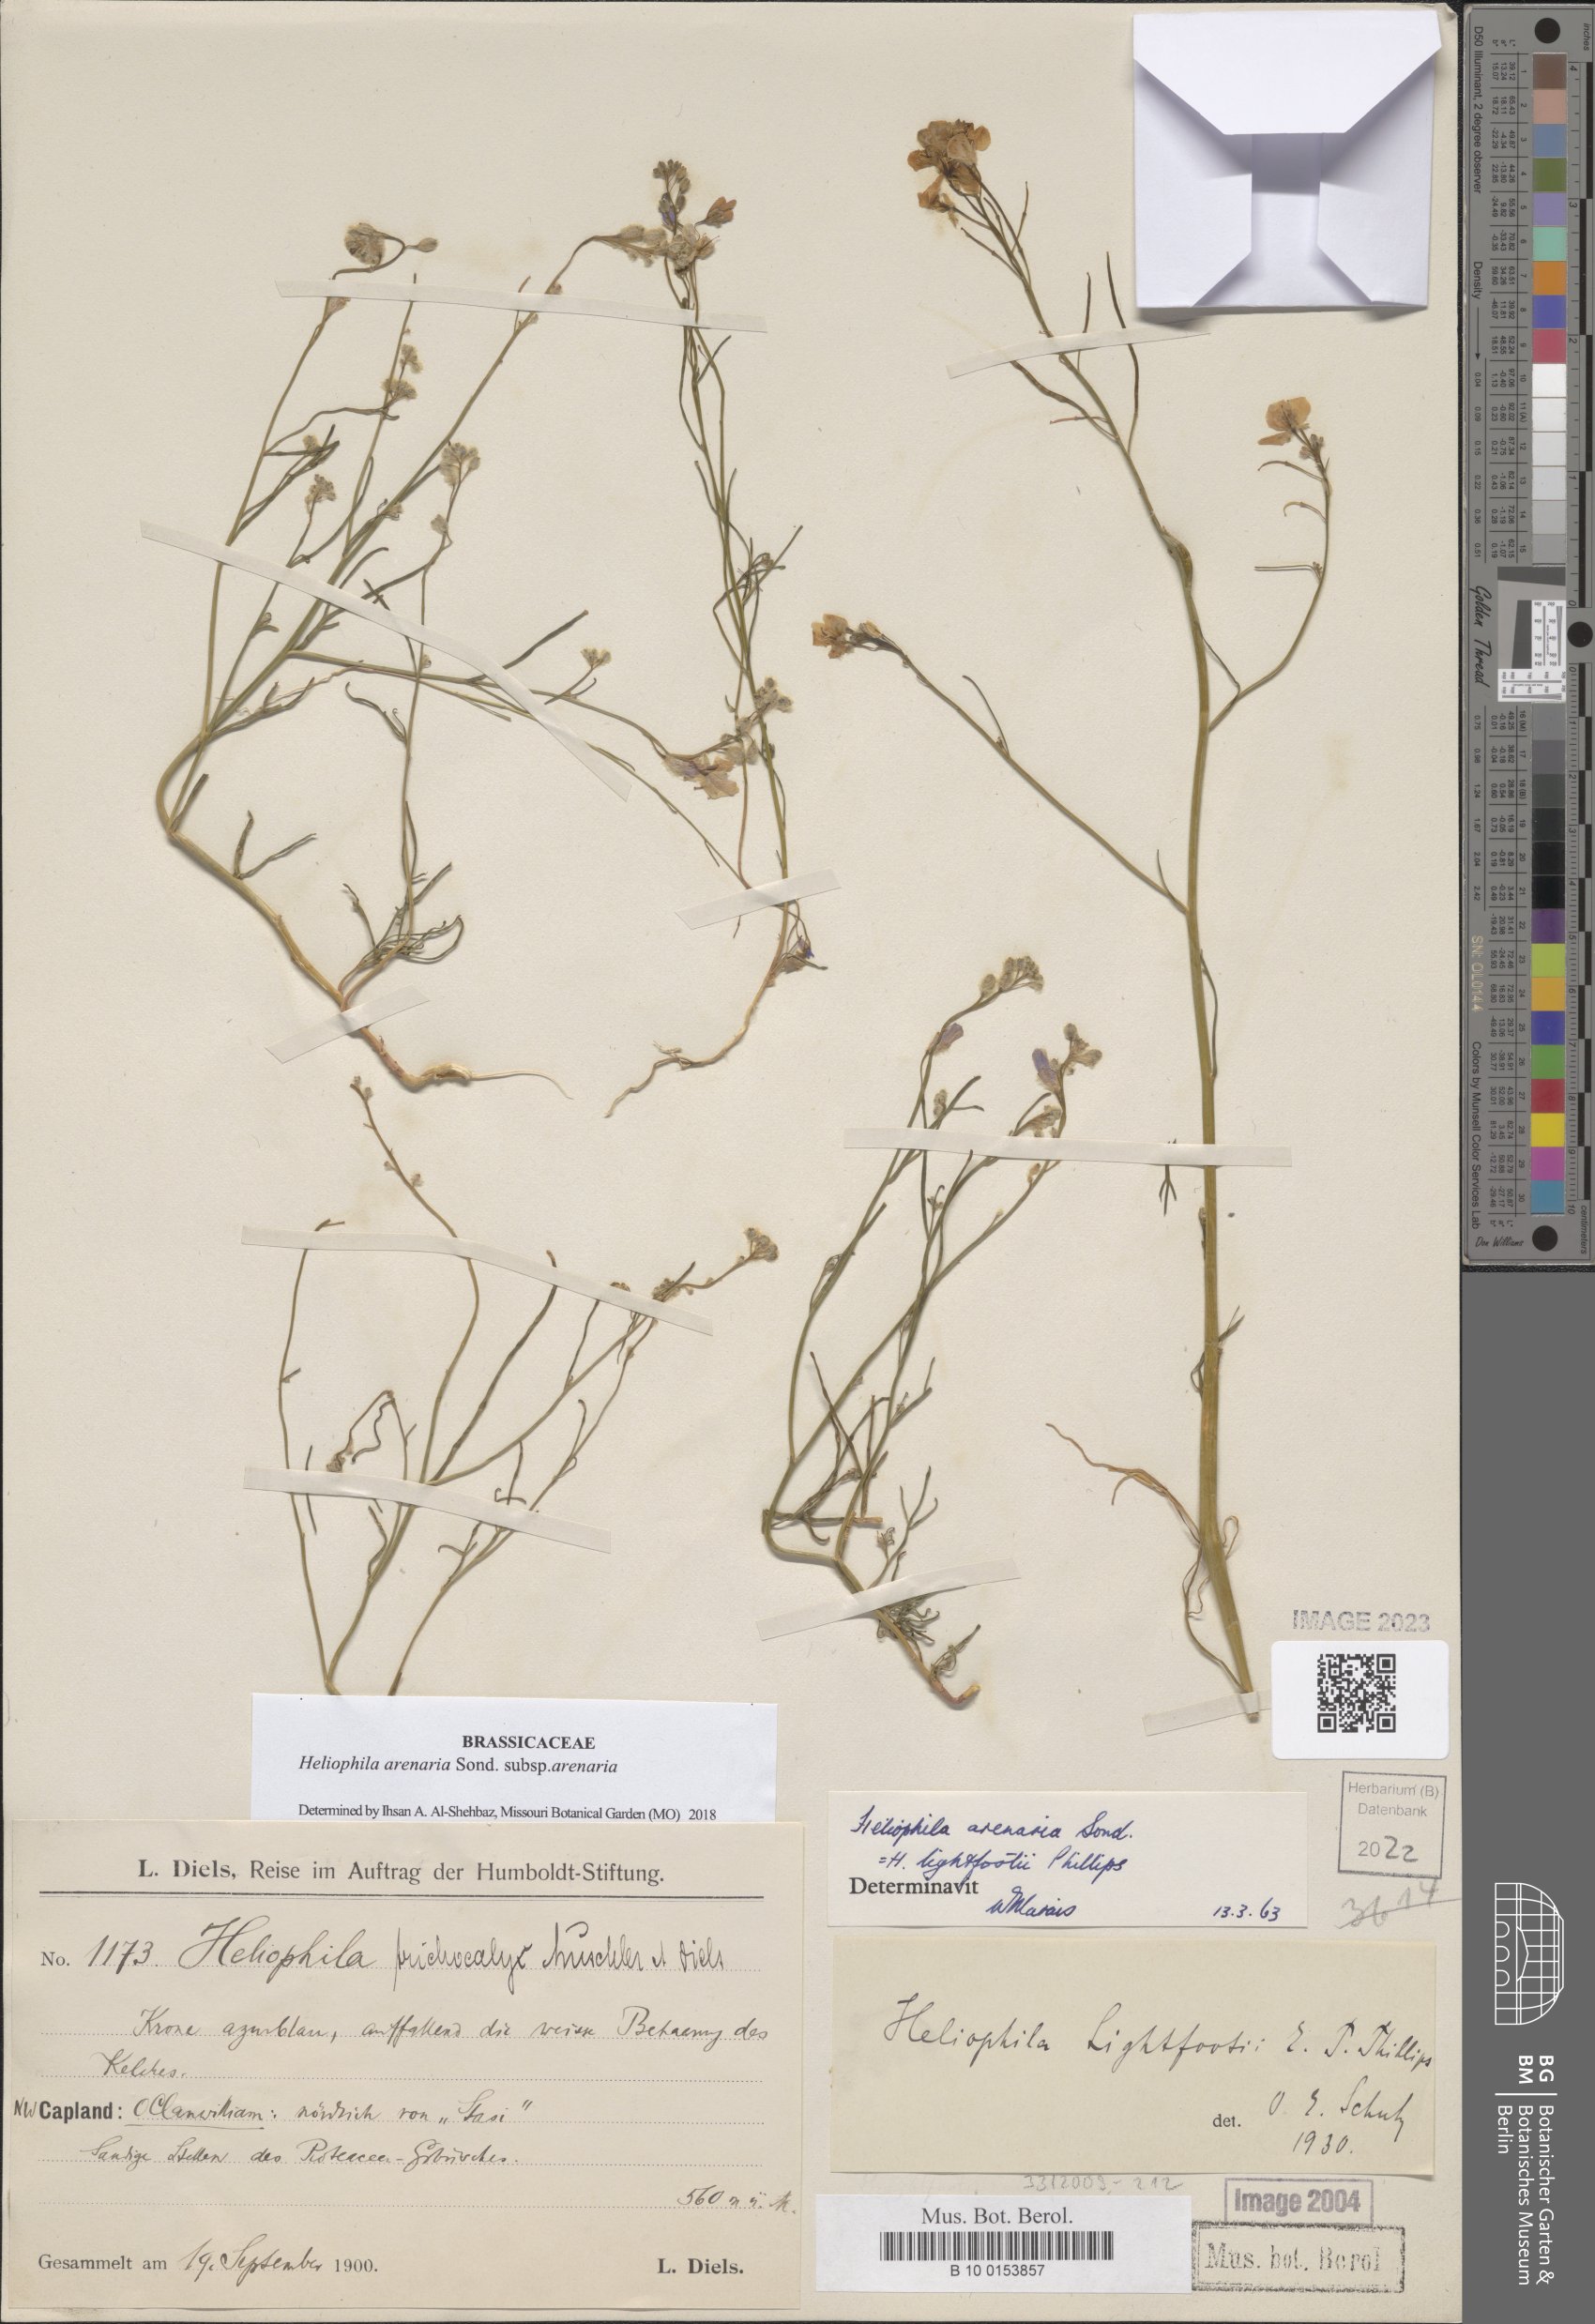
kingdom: Plantae
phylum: Tracheophyta
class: Magnoliopsida
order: Brassicales
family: Brassicaceae
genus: Heliophila
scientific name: Heliophila arenaria
